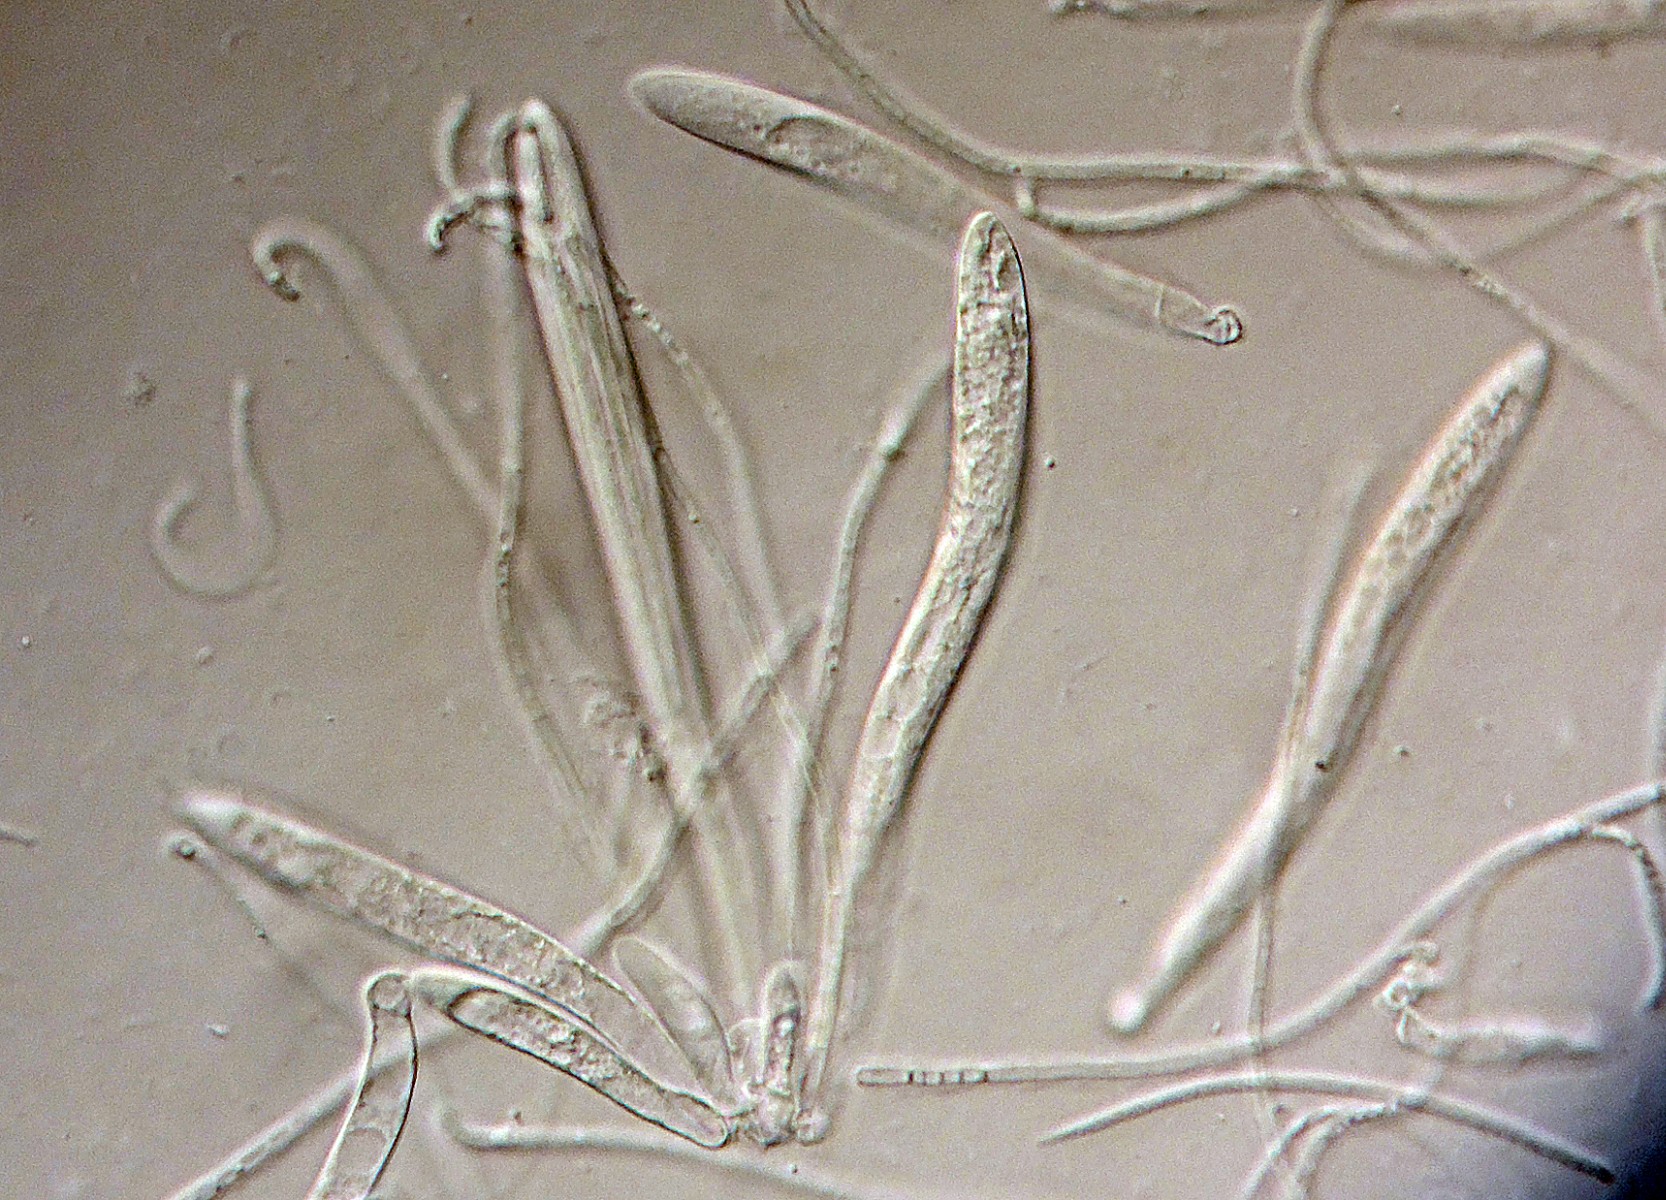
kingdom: Fungi
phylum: Ascomycota
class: Leotiomycetes
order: Rhytismatales
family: Rhytismataceae
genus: Lophodermium
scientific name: Lophodermium culmigenum
